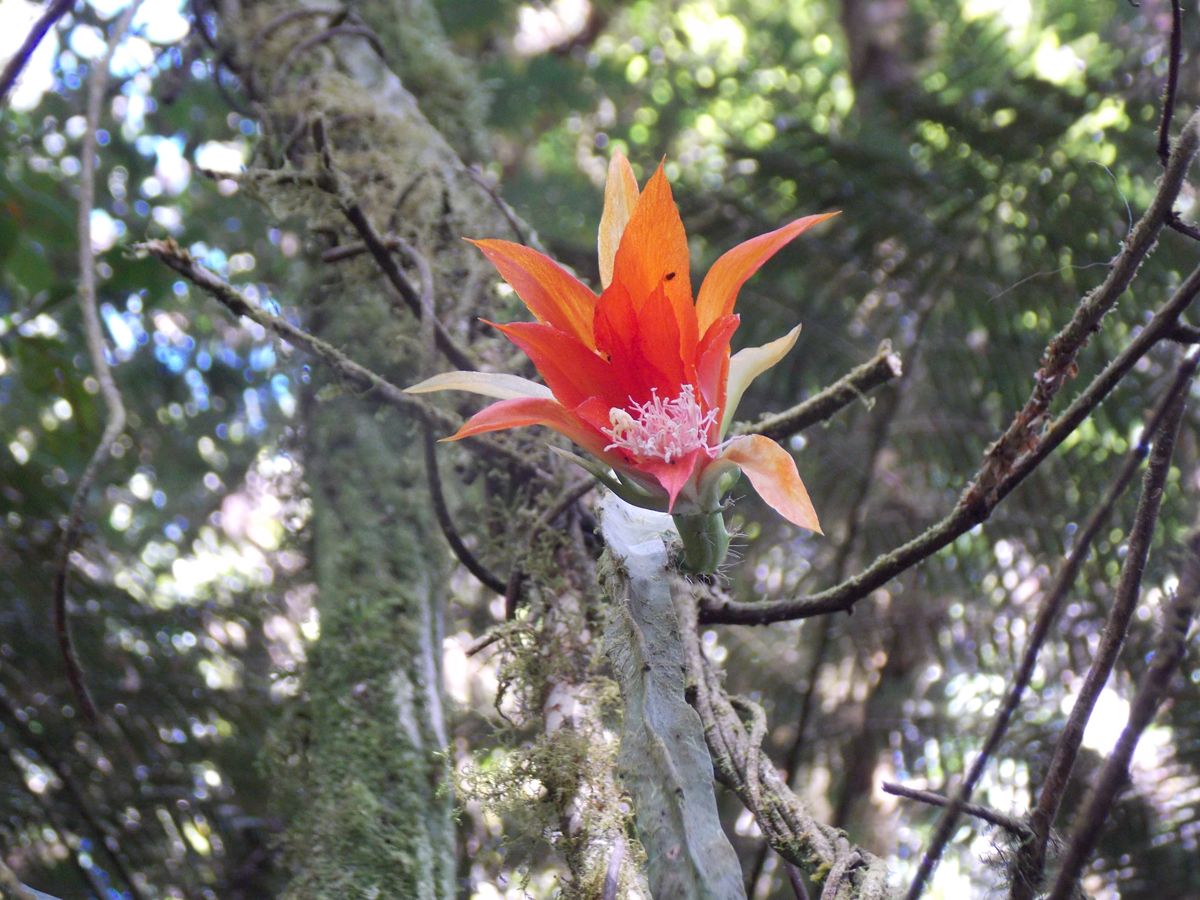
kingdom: Plantae
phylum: Tracheophyta
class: Magnoliopsida
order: Caryophyllales
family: Cactaceae
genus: Disocactus
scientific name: Disocactus speciosus
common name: Sun cereus
